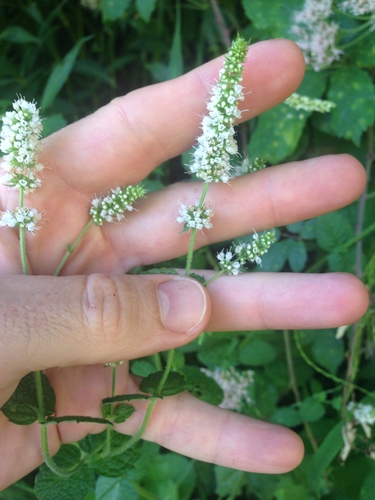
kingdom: Plantae
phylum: Tracheophyta
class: Magnoliopsida
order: Lamiales
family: Lamiaceae
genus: Mentha
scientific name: Mentha suaveolens
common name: Apple mint
